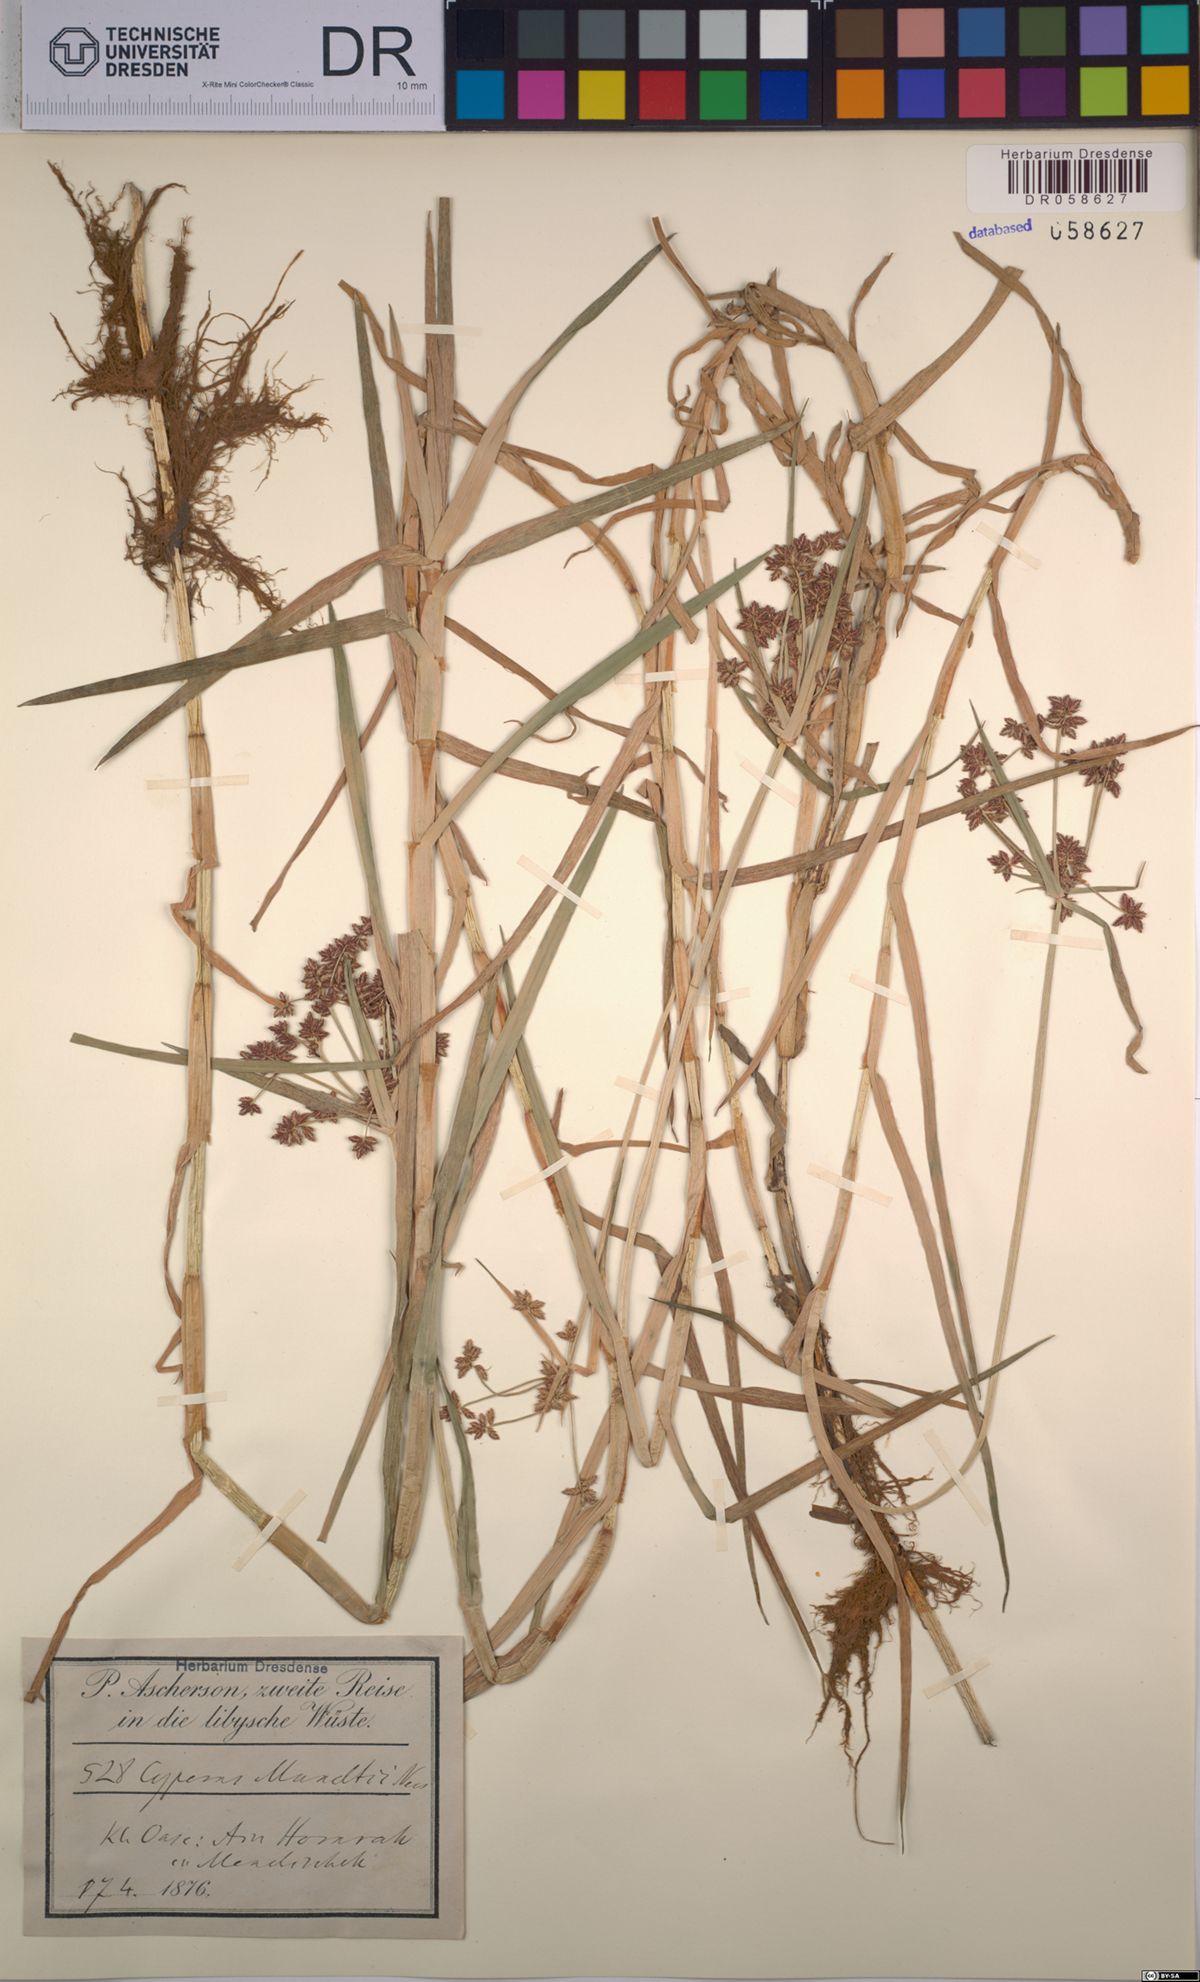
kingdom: Plantae
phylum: Tracheophyta
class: Liliopsida
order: Poales
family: Cyperaceae
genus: Cyperus
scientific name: Cyperus mundii
